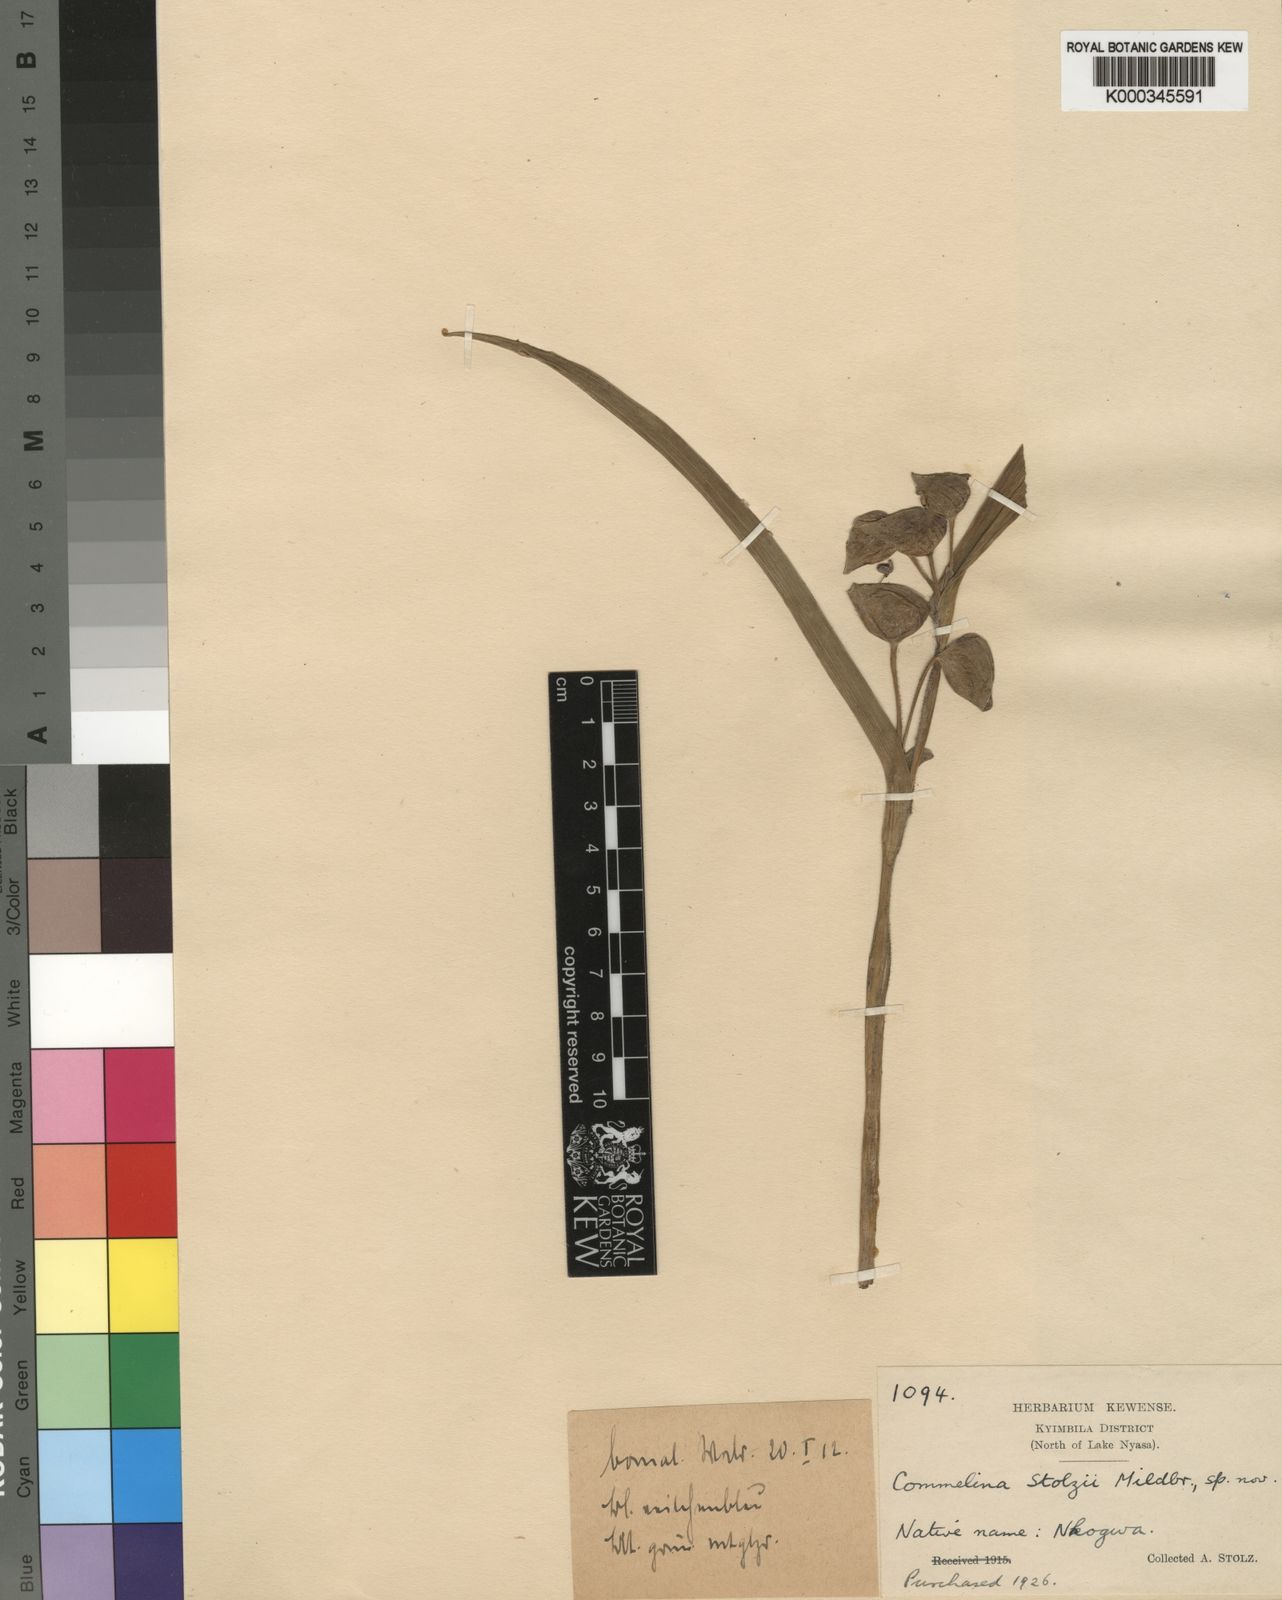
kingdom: Plantae
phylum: Tracheophyta
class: Liliopsida
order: Commelinales
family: Commelinaceae
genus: Commelina
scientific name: Commelina schweinfurthii
